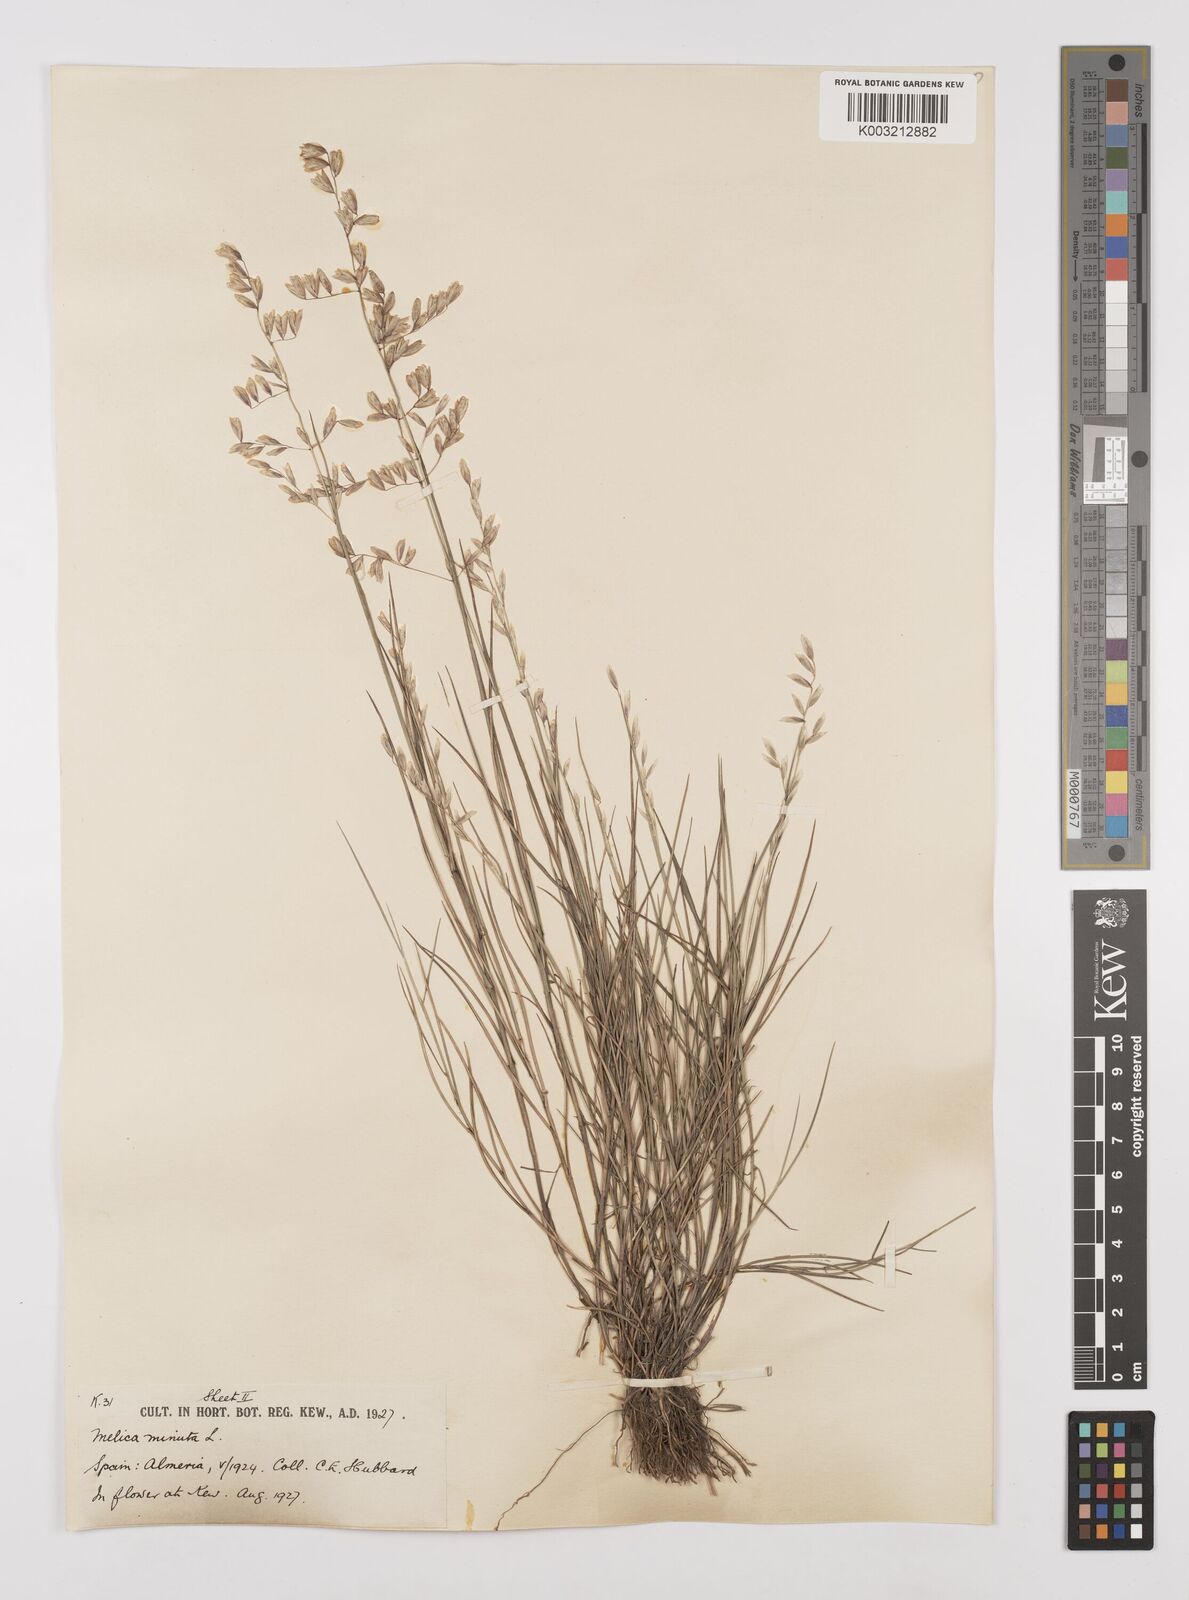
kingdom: Plantae
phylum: Tracheophyta
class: Liliopsida
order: Poales
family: Poaceae
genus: Melica
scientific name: Melica minuta
